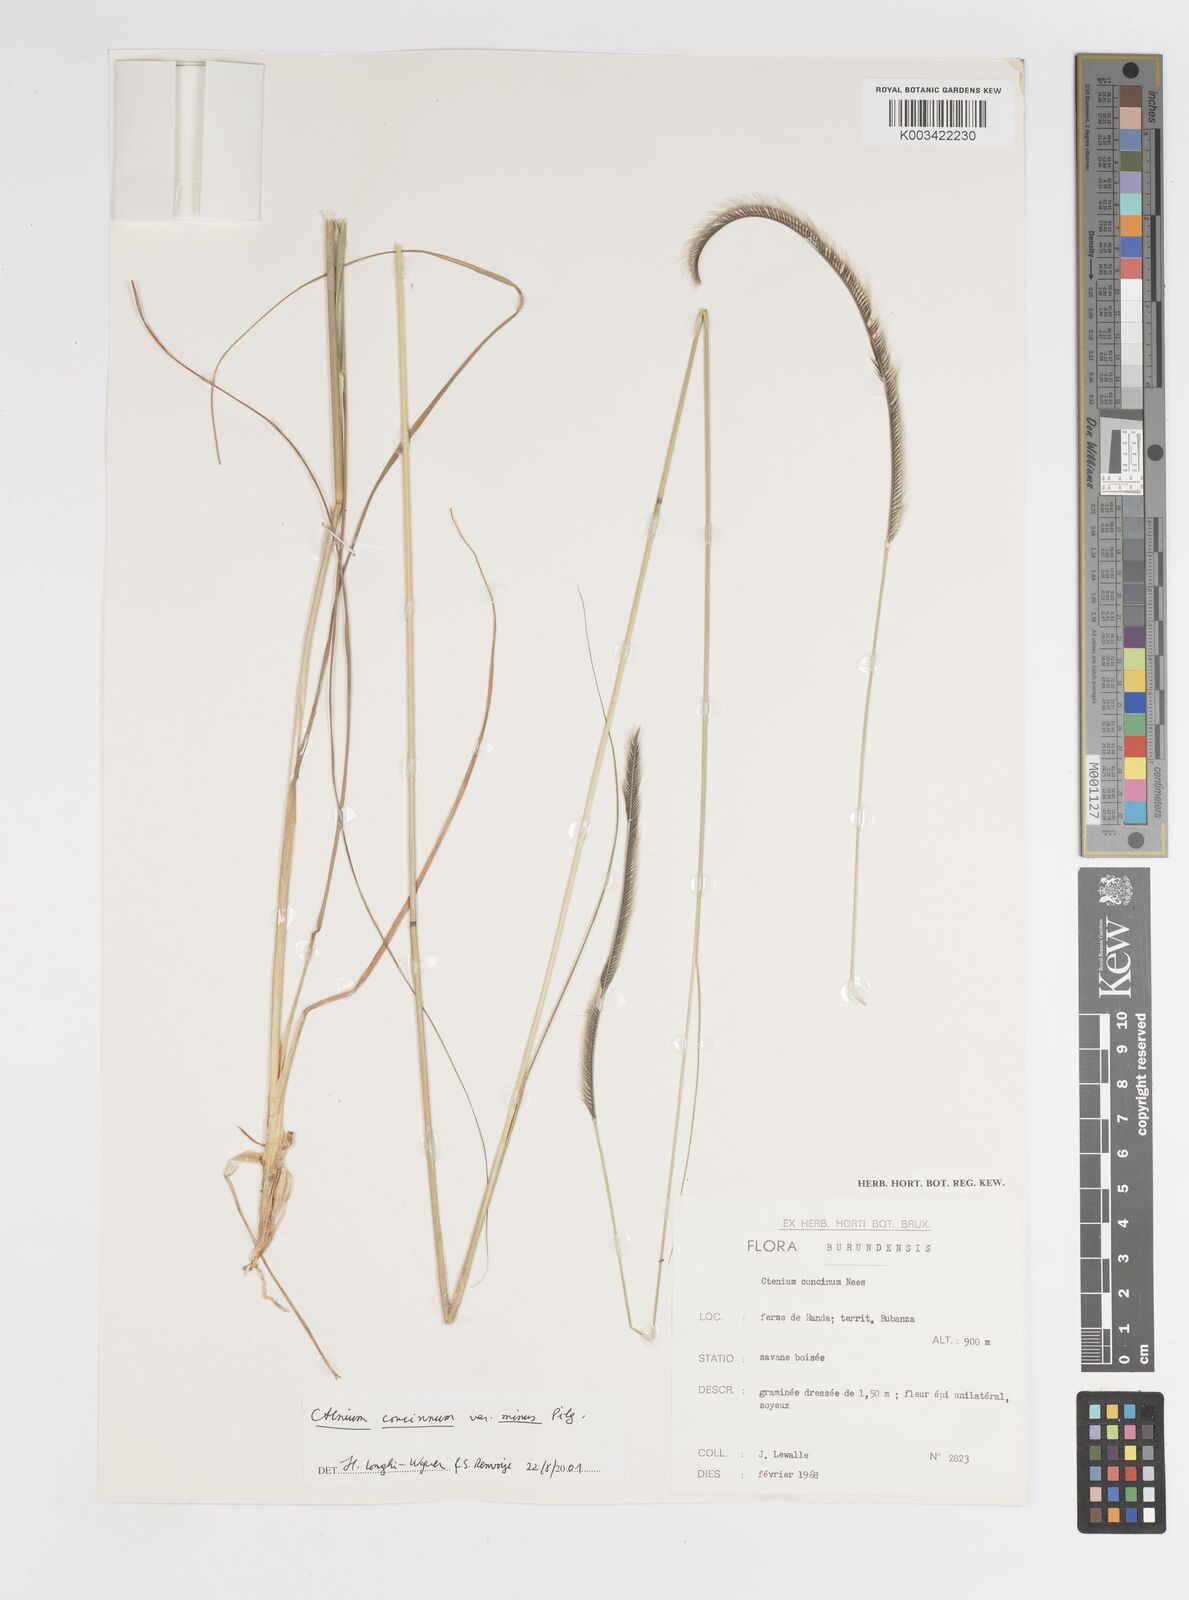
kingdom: Plantae
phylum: Tracheophyta
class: Liliopsida
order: Poales
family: Poaceae
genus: Ctenium
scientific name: Ctenium concinnum
